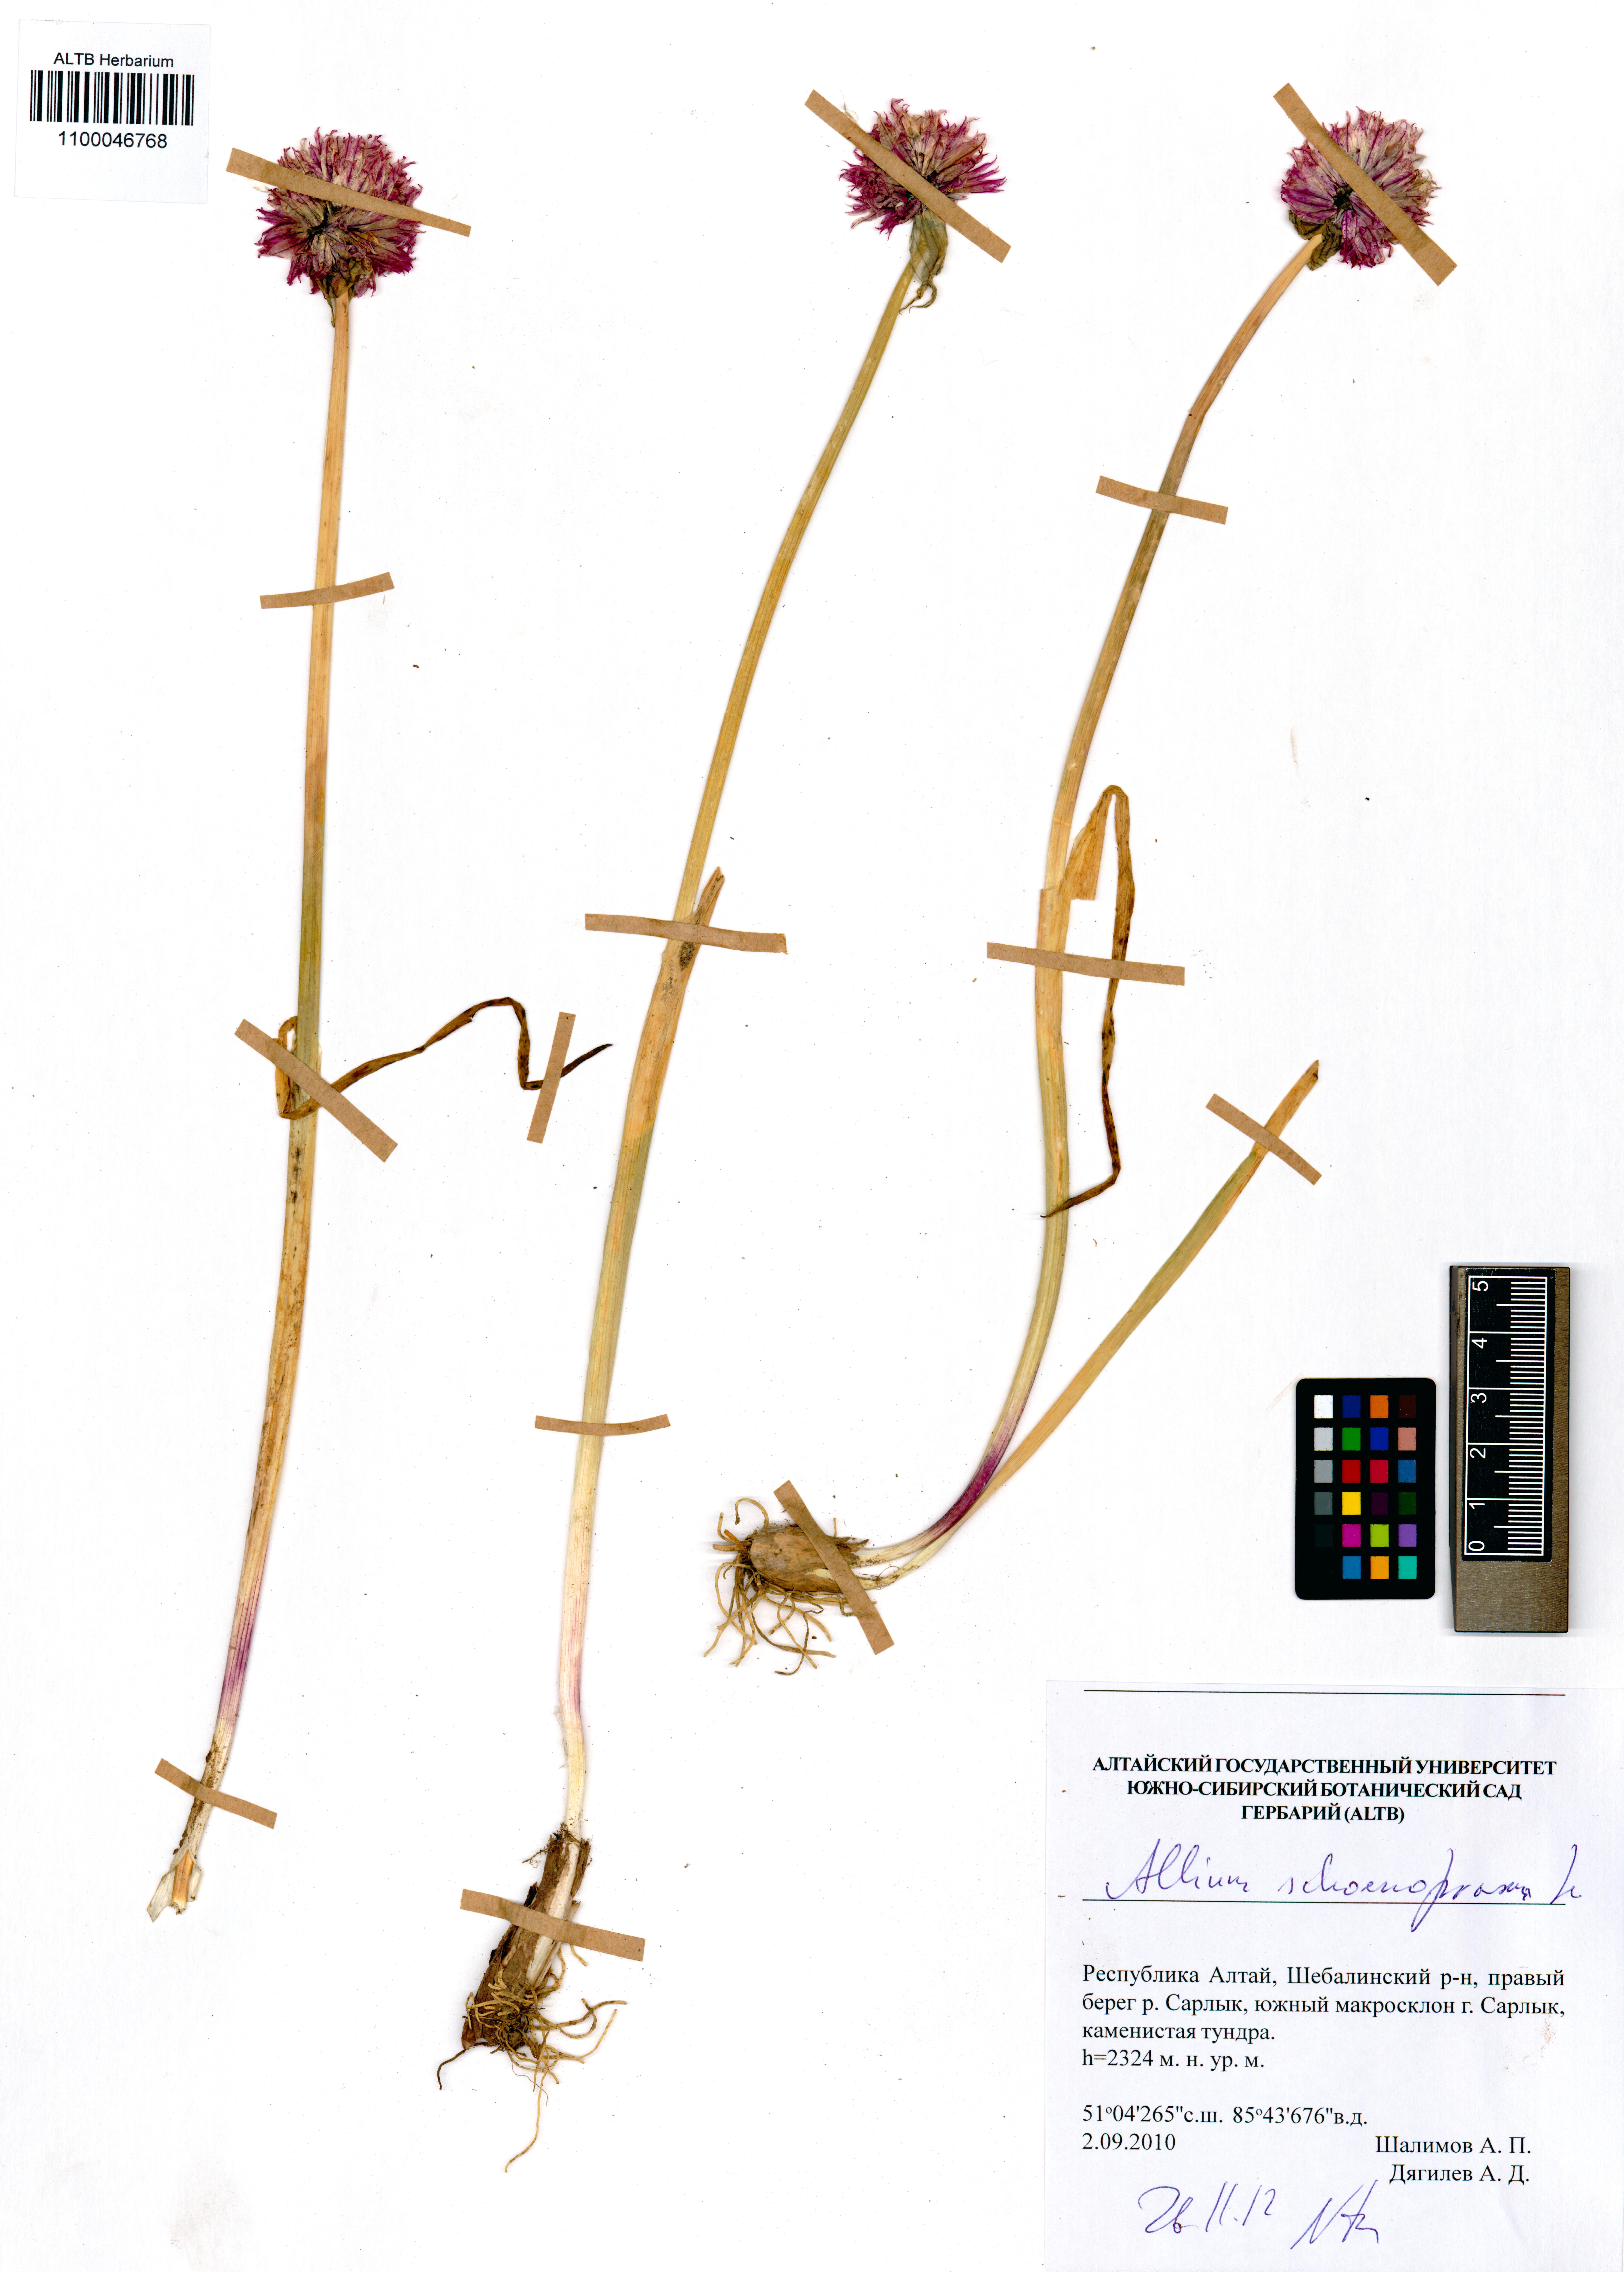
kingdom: Plantae
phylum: Tracheophyta
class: Liliopsida
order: Asparagales
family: Amaryllidaceae
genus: Allium
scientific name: Allium schoenoprasum
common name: Chives
